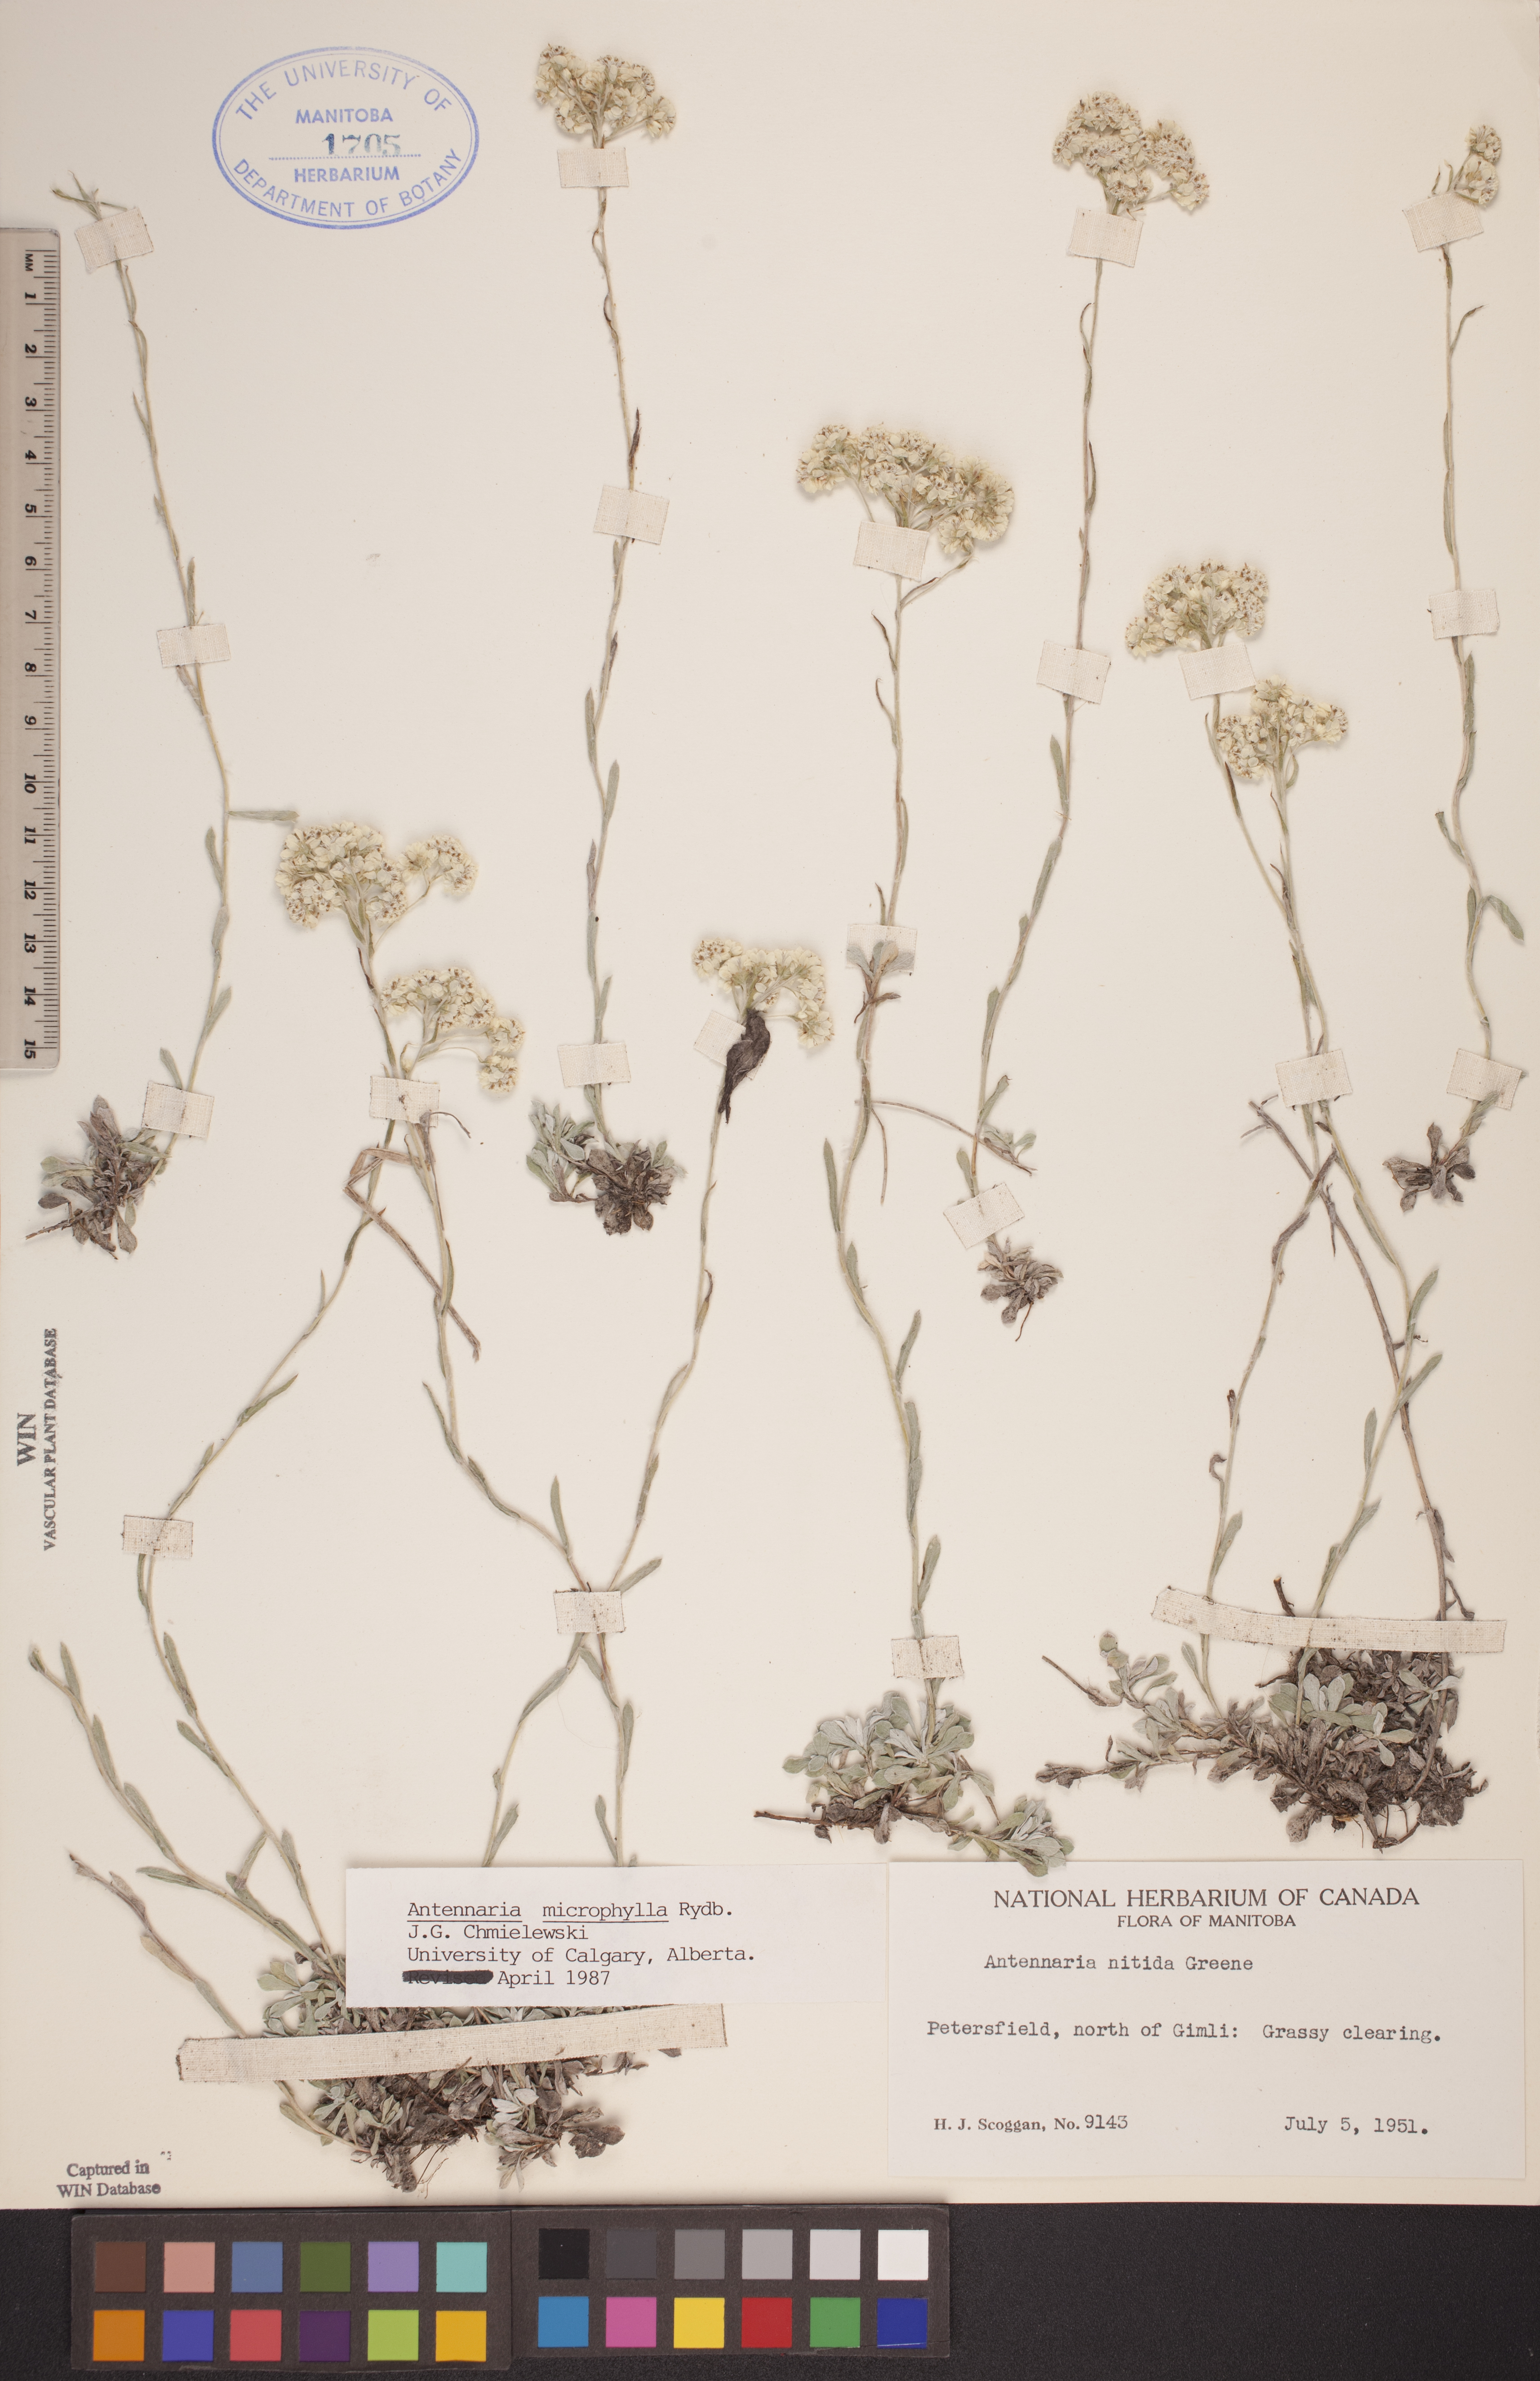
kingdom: Plantae
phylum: Tracheophyta
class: Magnoliopsida
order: Asterales
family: Asteraceae
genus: Antennaria
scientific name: Antennaria microphylla
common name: Littleleaf pussytoes
